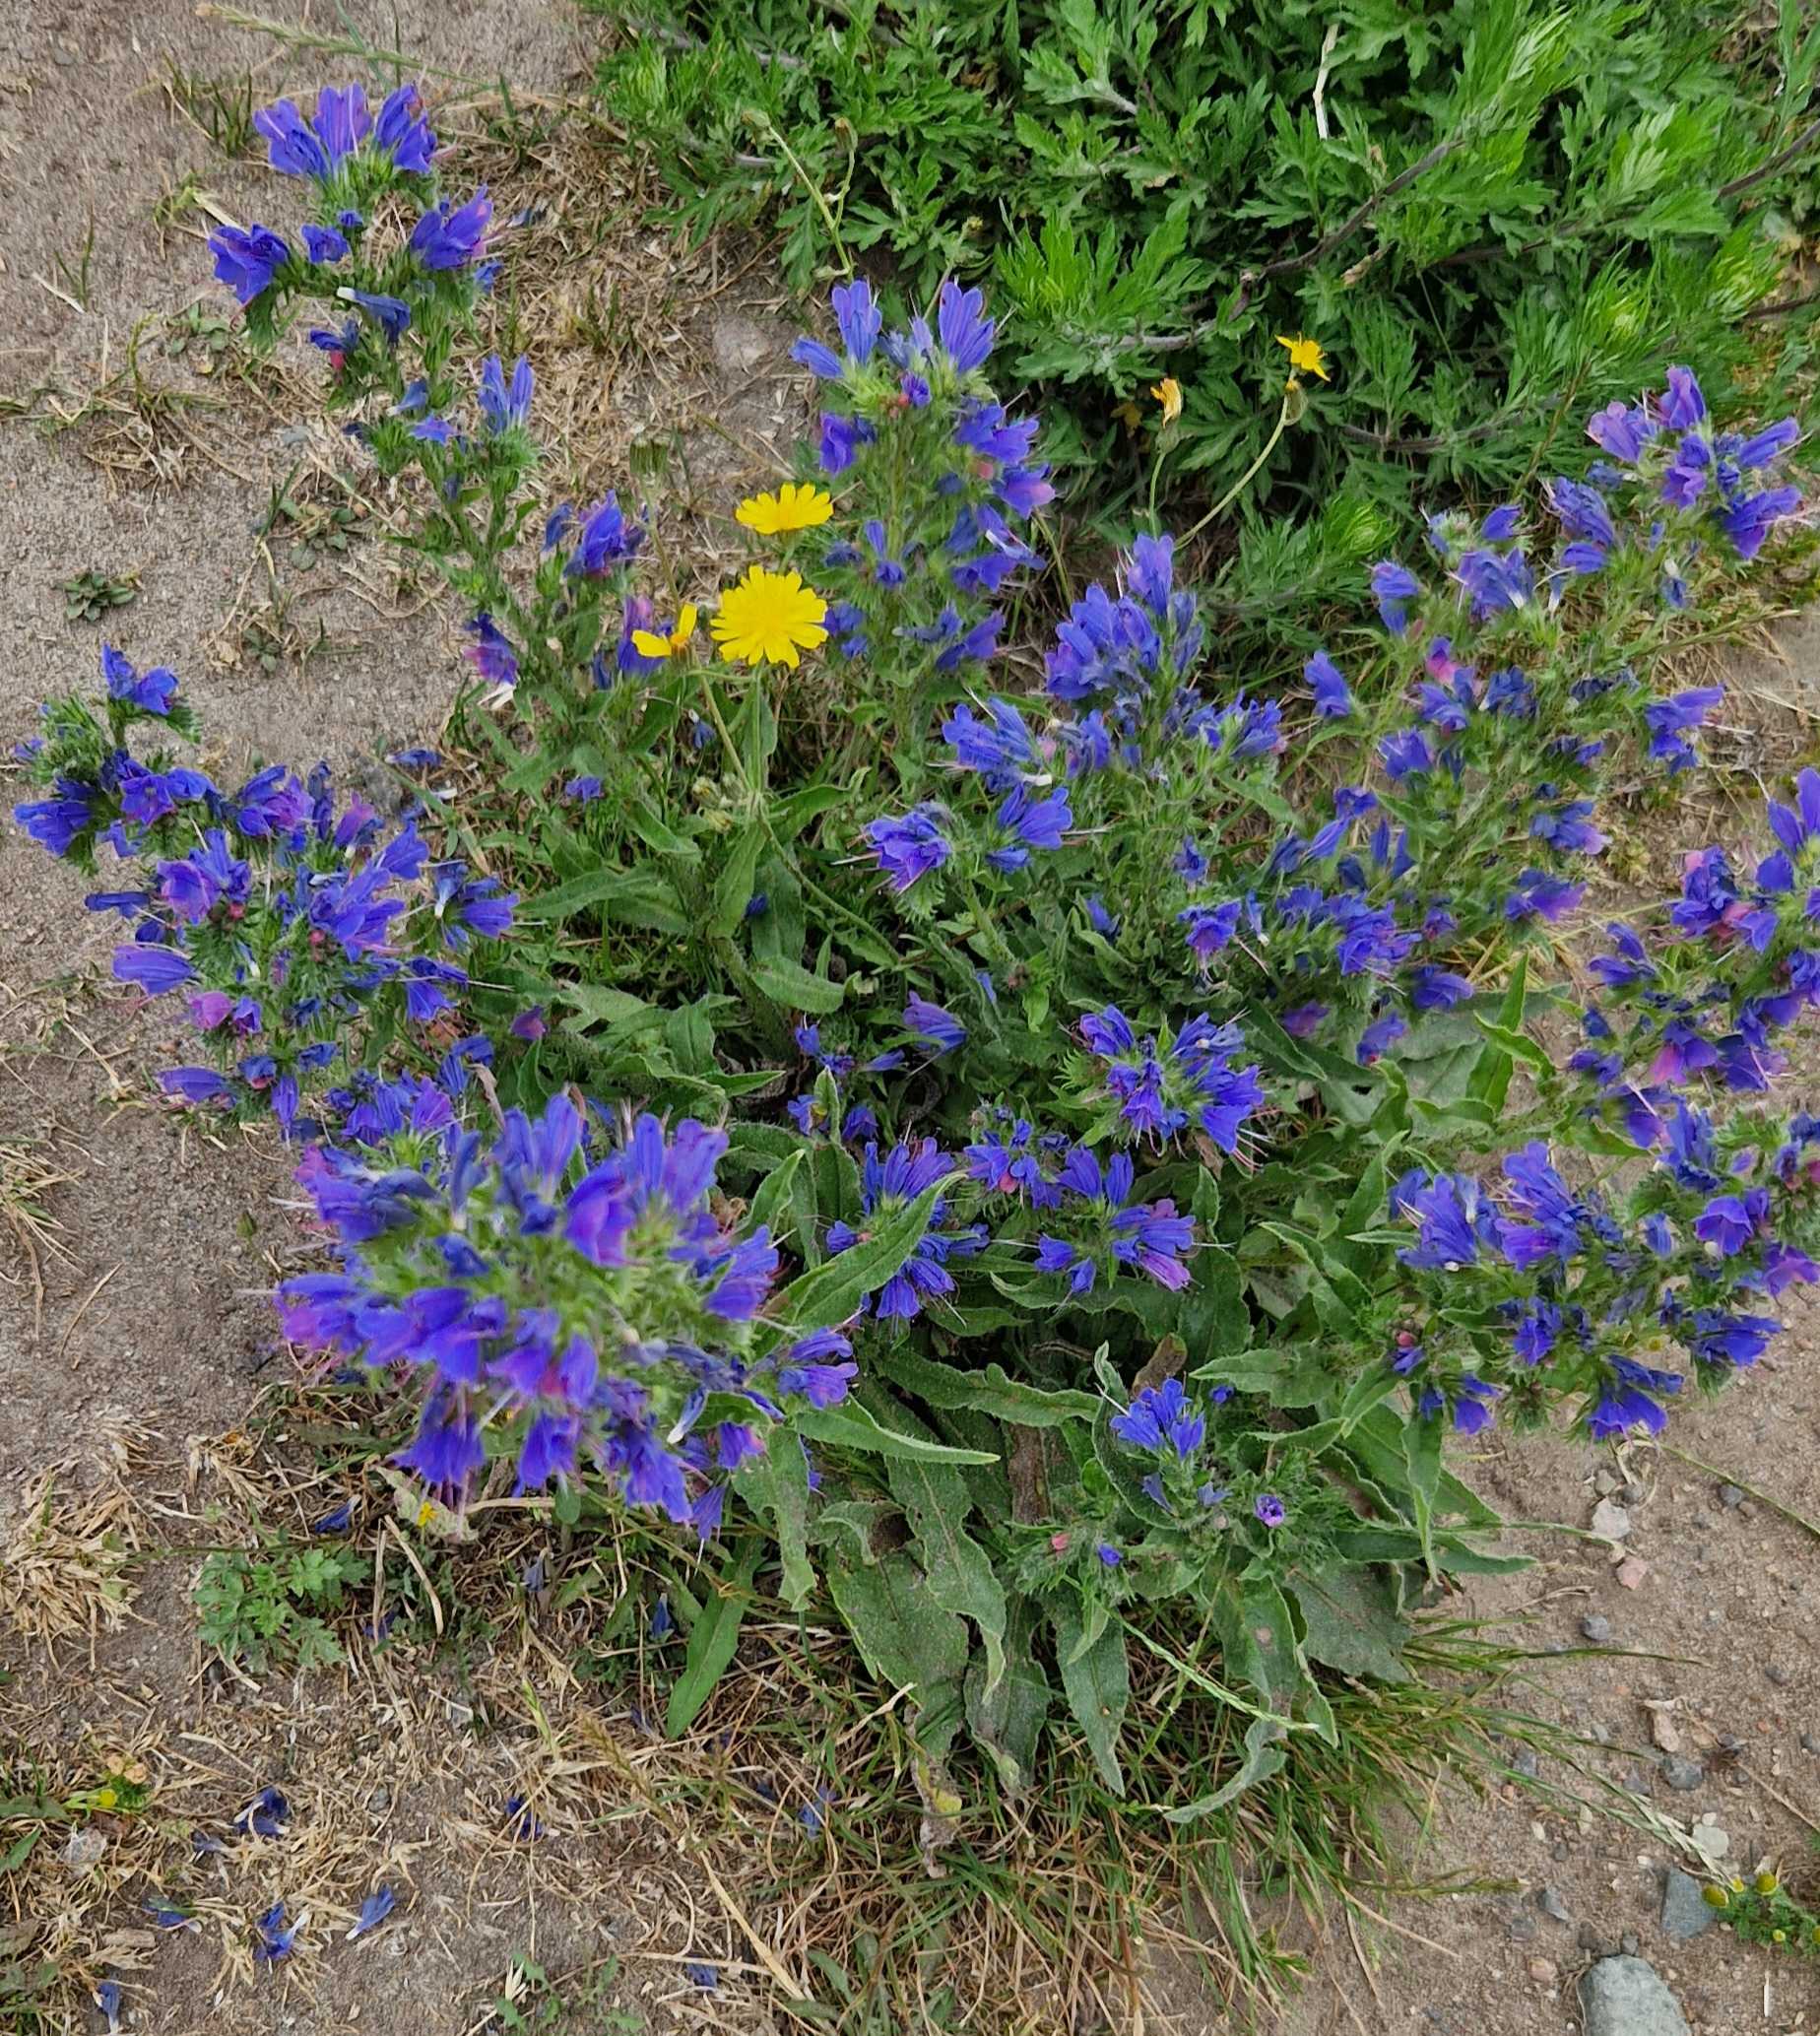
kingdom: Plantae
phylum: Tracheophyta
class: Magnoliopsida
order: Boraginales
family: Boraginaceae
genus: Echium
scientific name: Echium vulgare
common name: Slangehoved
